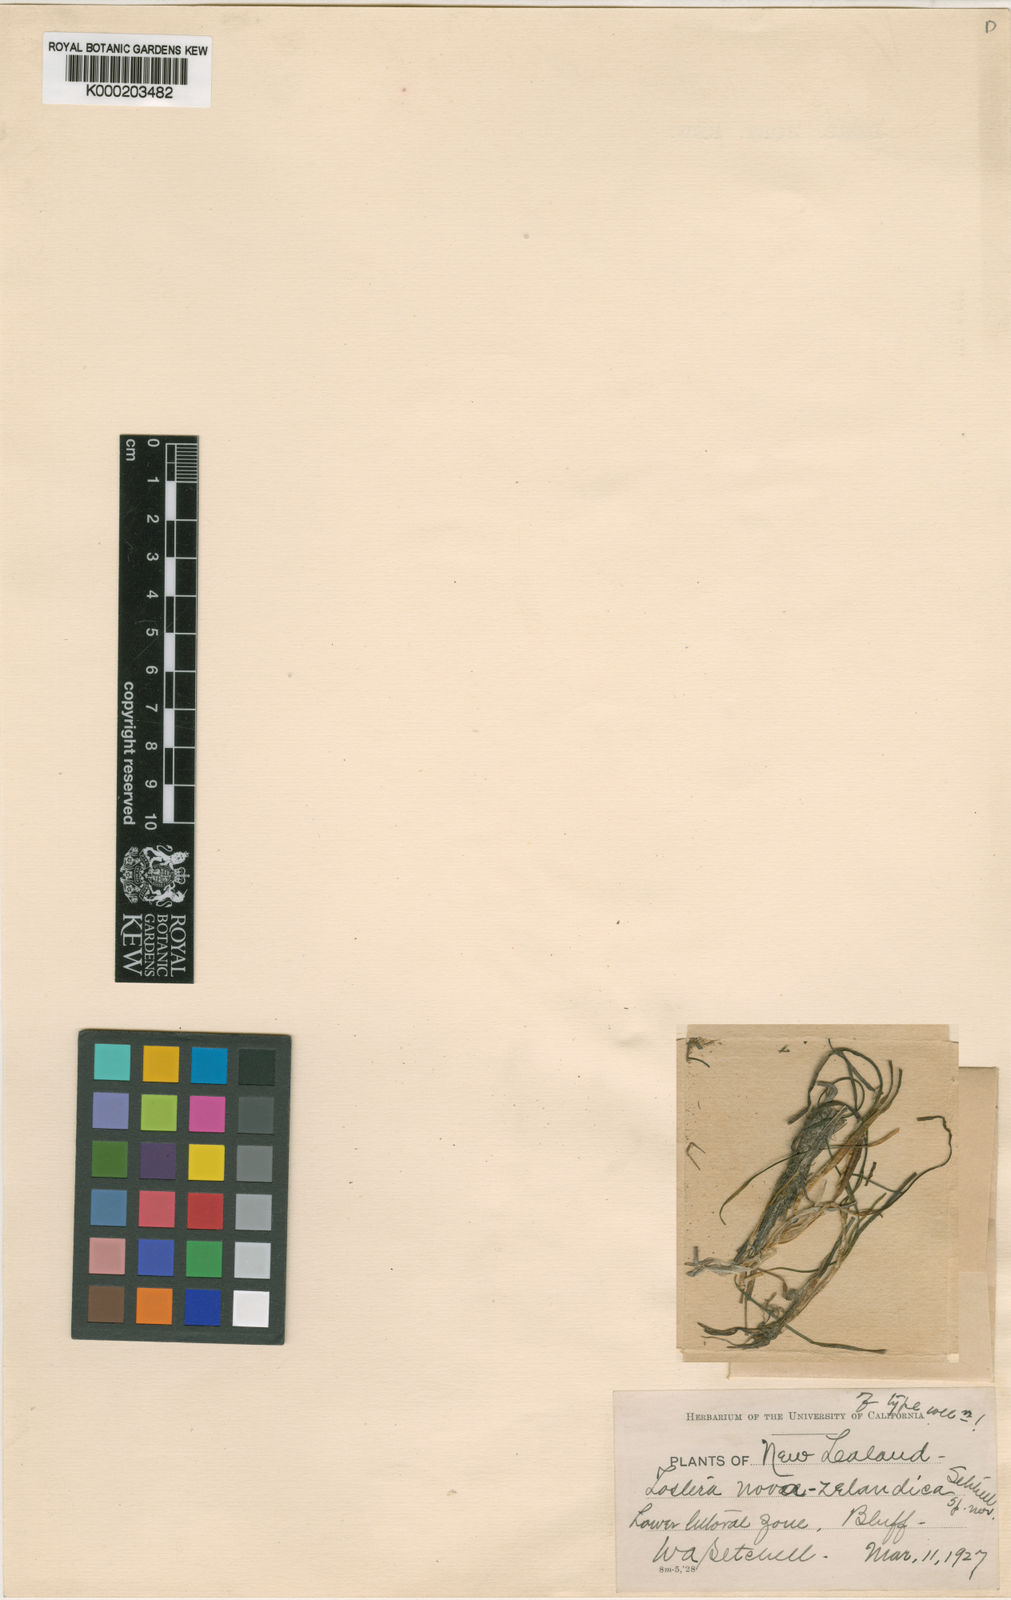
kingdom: Plantae
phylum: Tracheophyta
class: Liliopsida
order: Alismatales
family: Zosteraceae
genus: Zostera
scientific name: Zostera novazelandica
